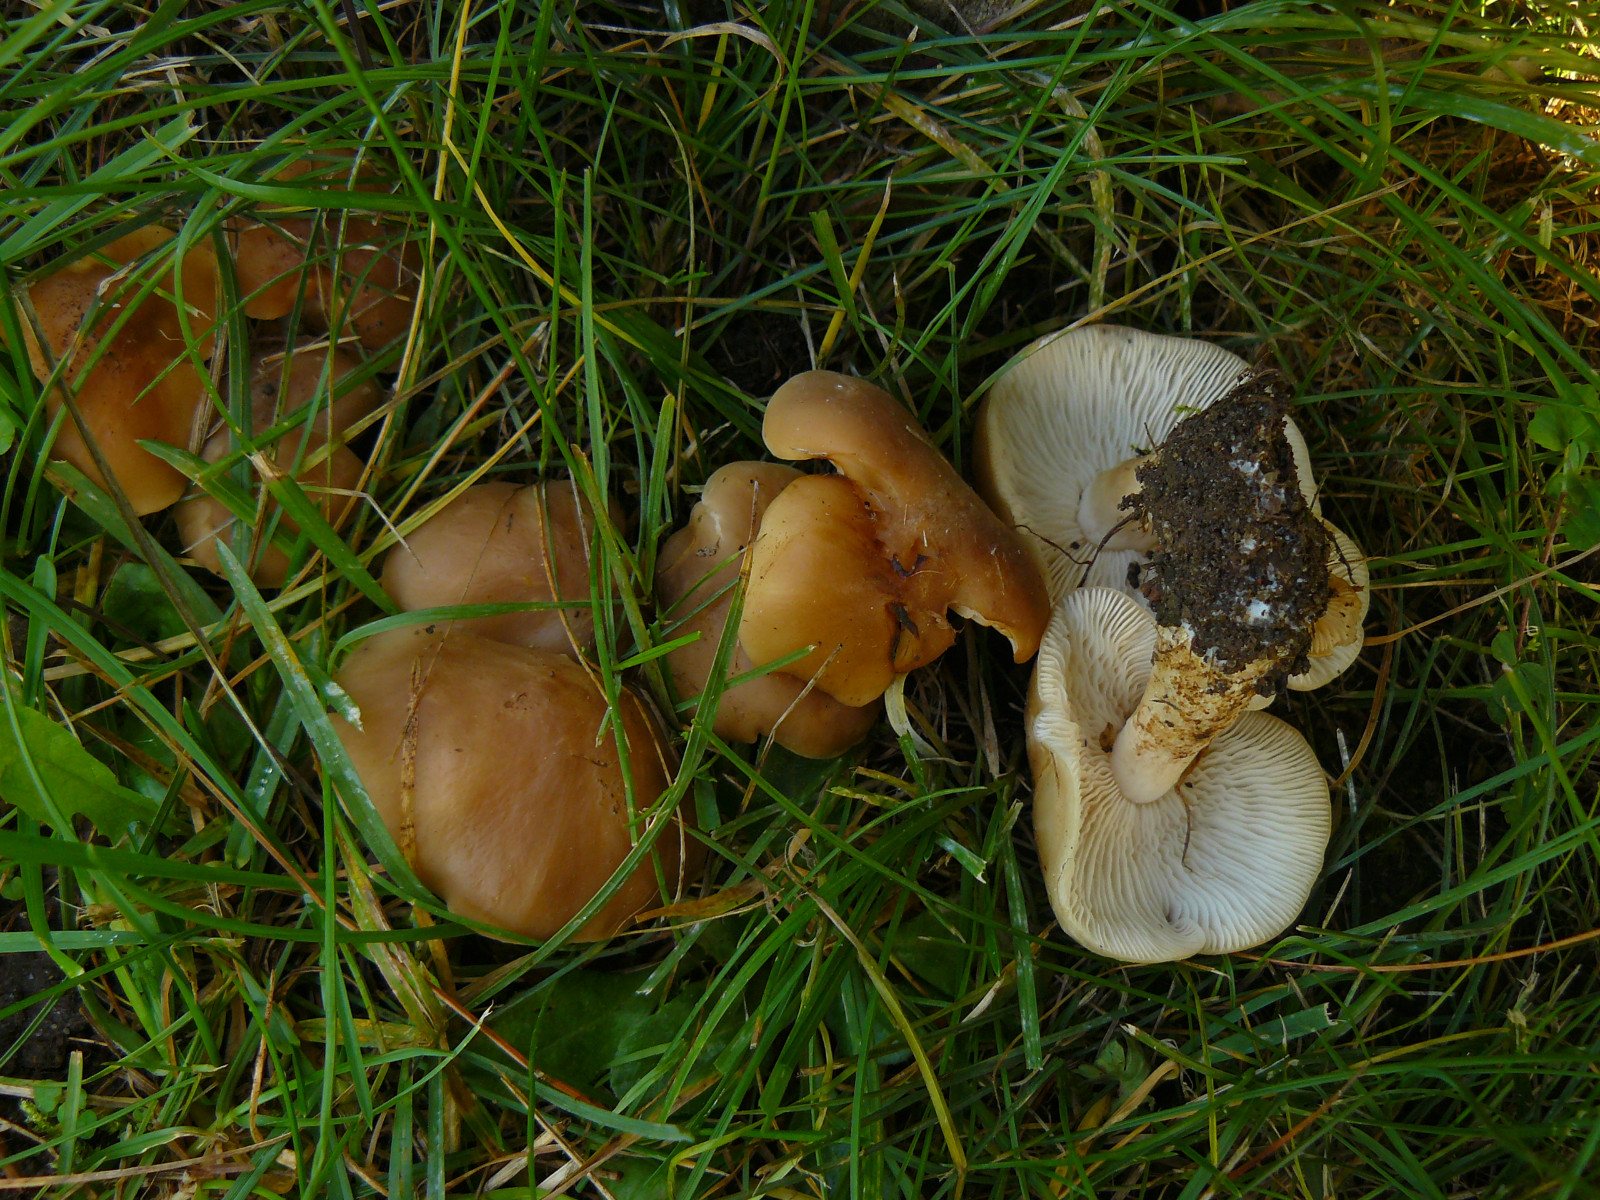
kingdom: Fungi
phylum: Basidiomycota
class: Agaricomycetes
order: Agaricales
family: Lyophyllaceae
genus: Lyophyllum
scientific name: Lyophyllum
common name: gråblad
